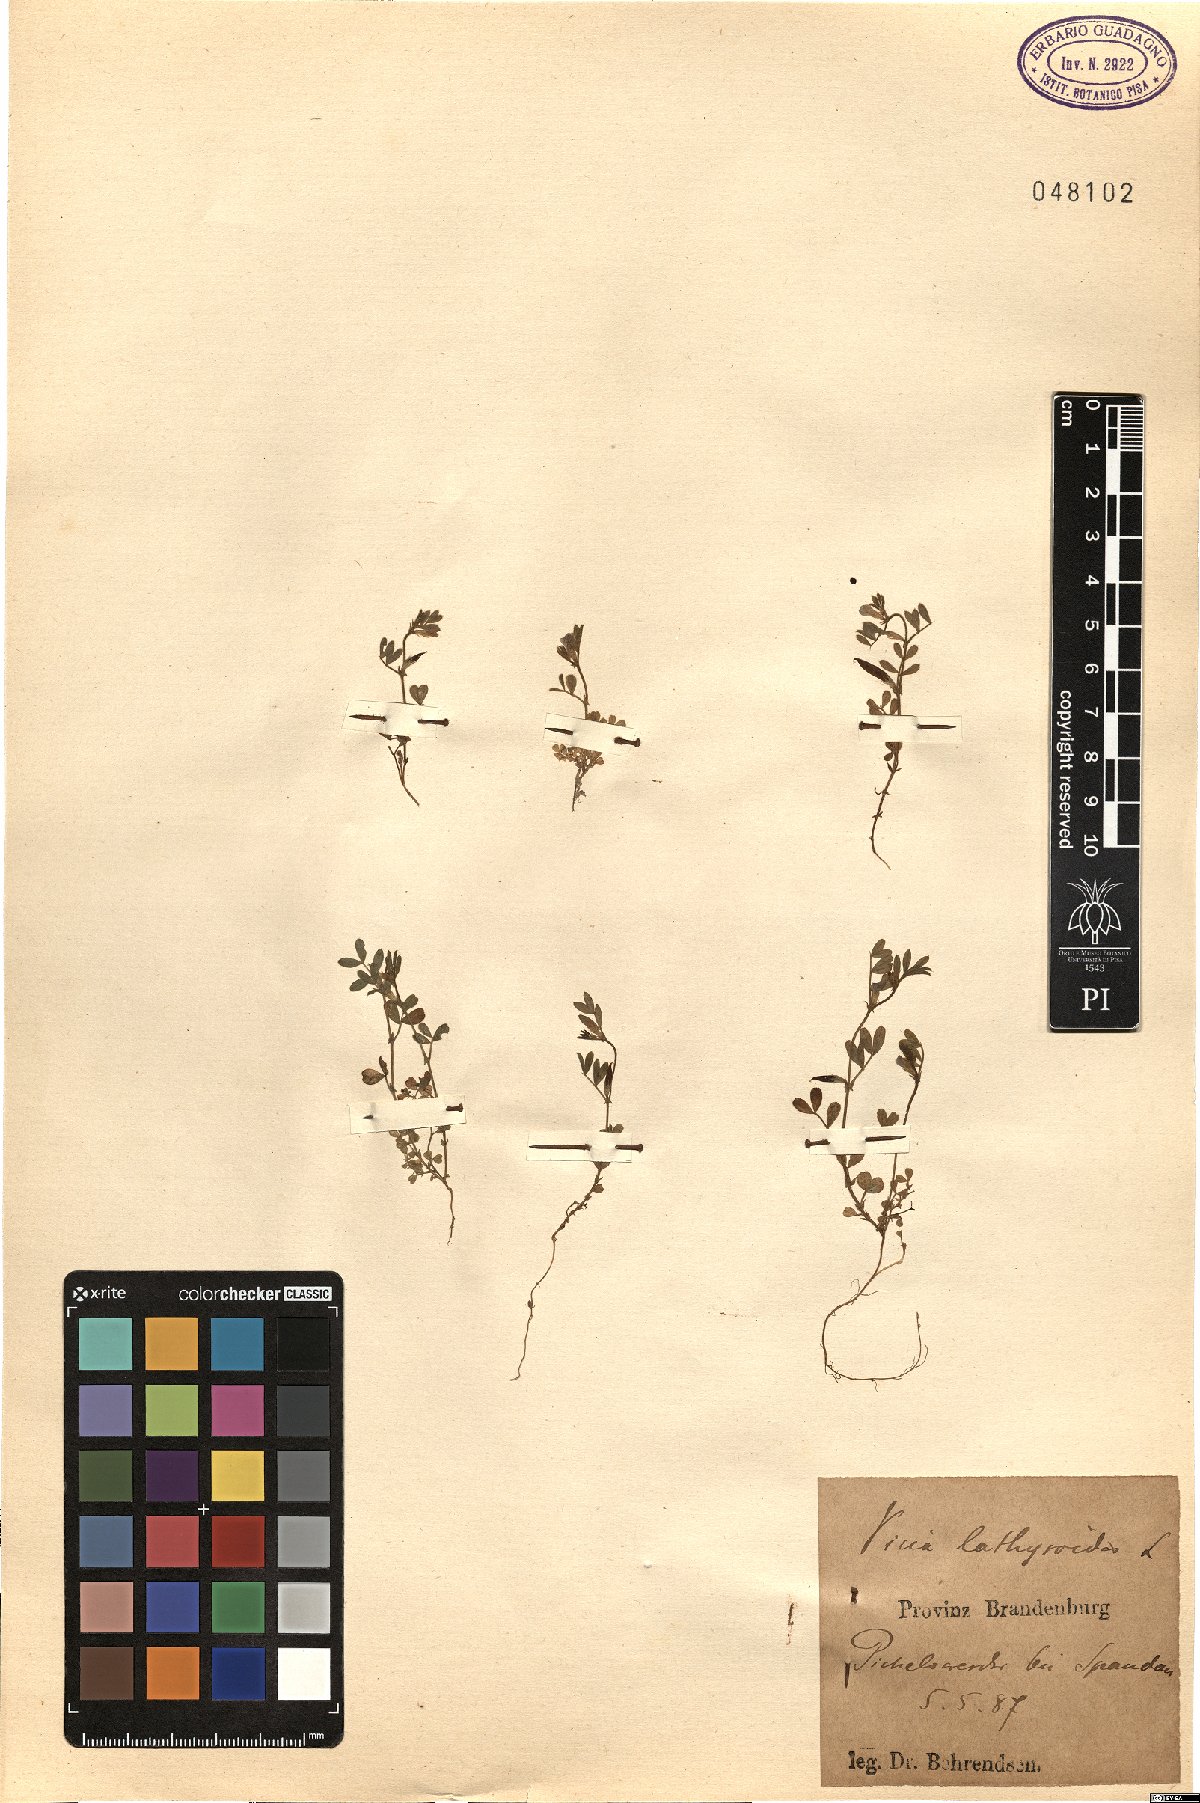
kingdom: Plantae
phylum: Tracheophyta
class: Magnoliopsida
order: Fabales
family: Fabaceae
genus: Vicia
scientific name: Vicia lathyroides
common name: Spring vetch
